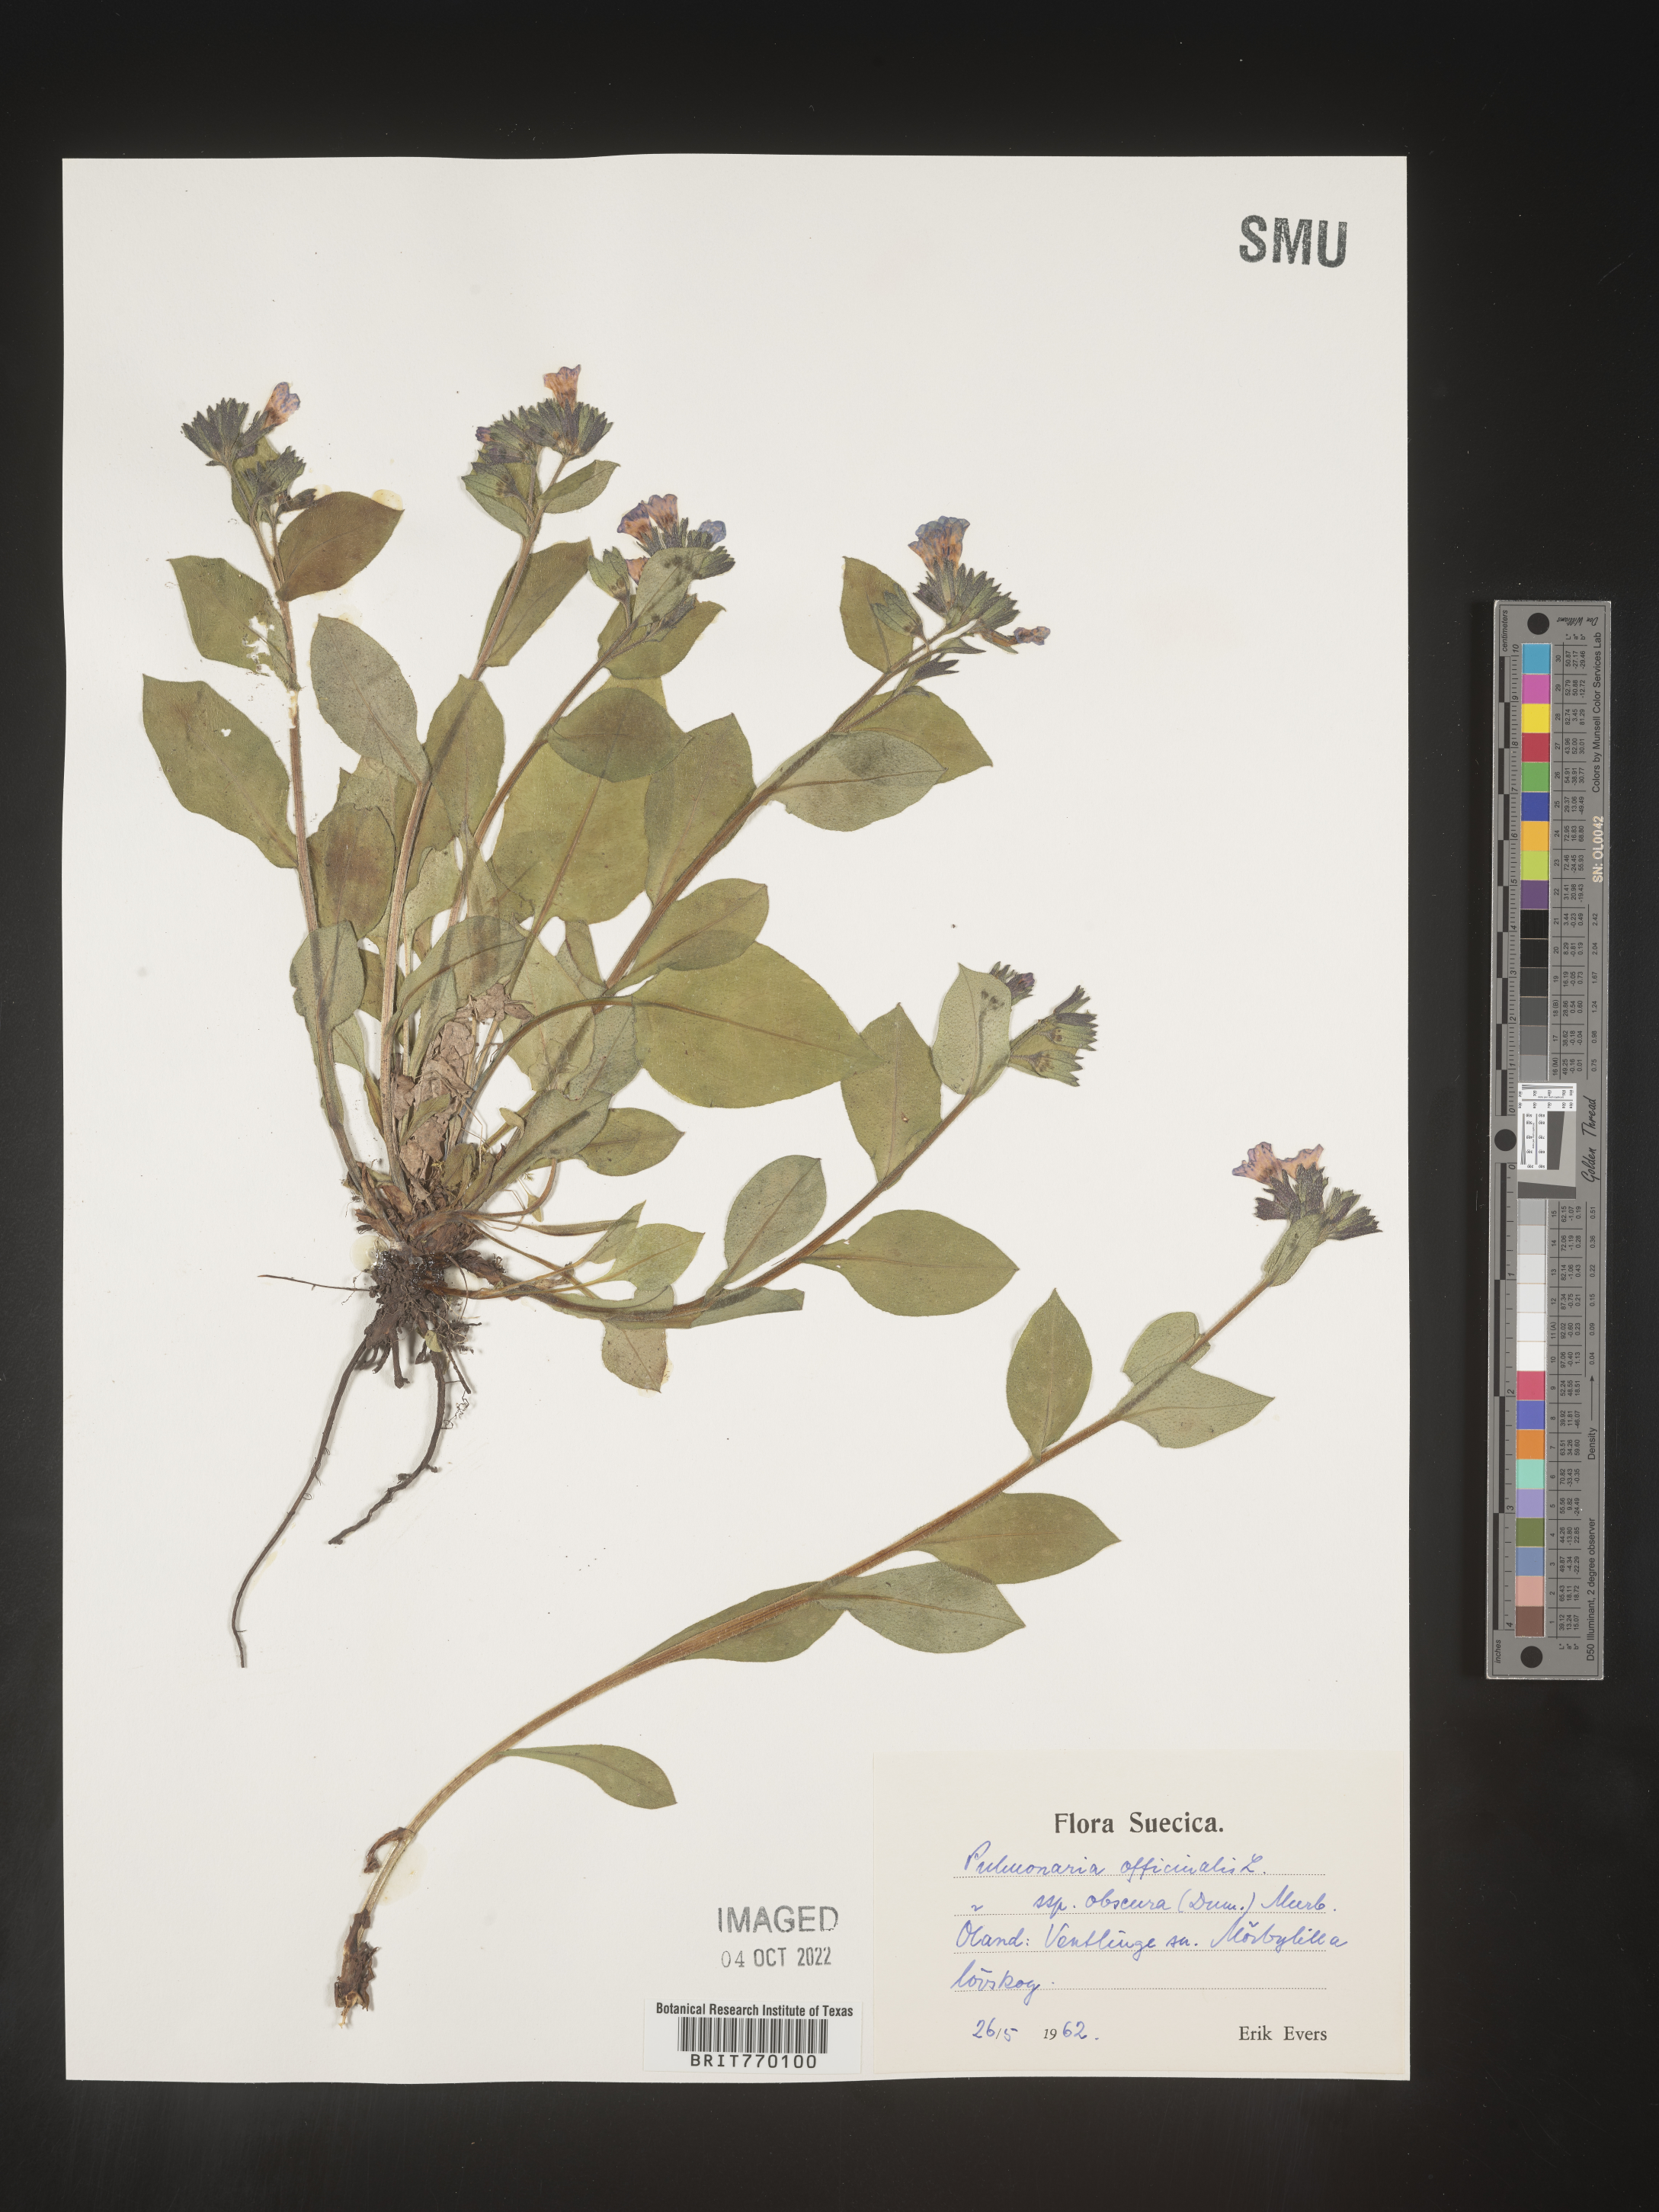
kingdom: Plantae
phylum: Tracheophyta
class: Magnoliopsida
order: Boraginales
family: Boraginaceae
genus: Pulmonaria
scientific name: Pulmonaria
